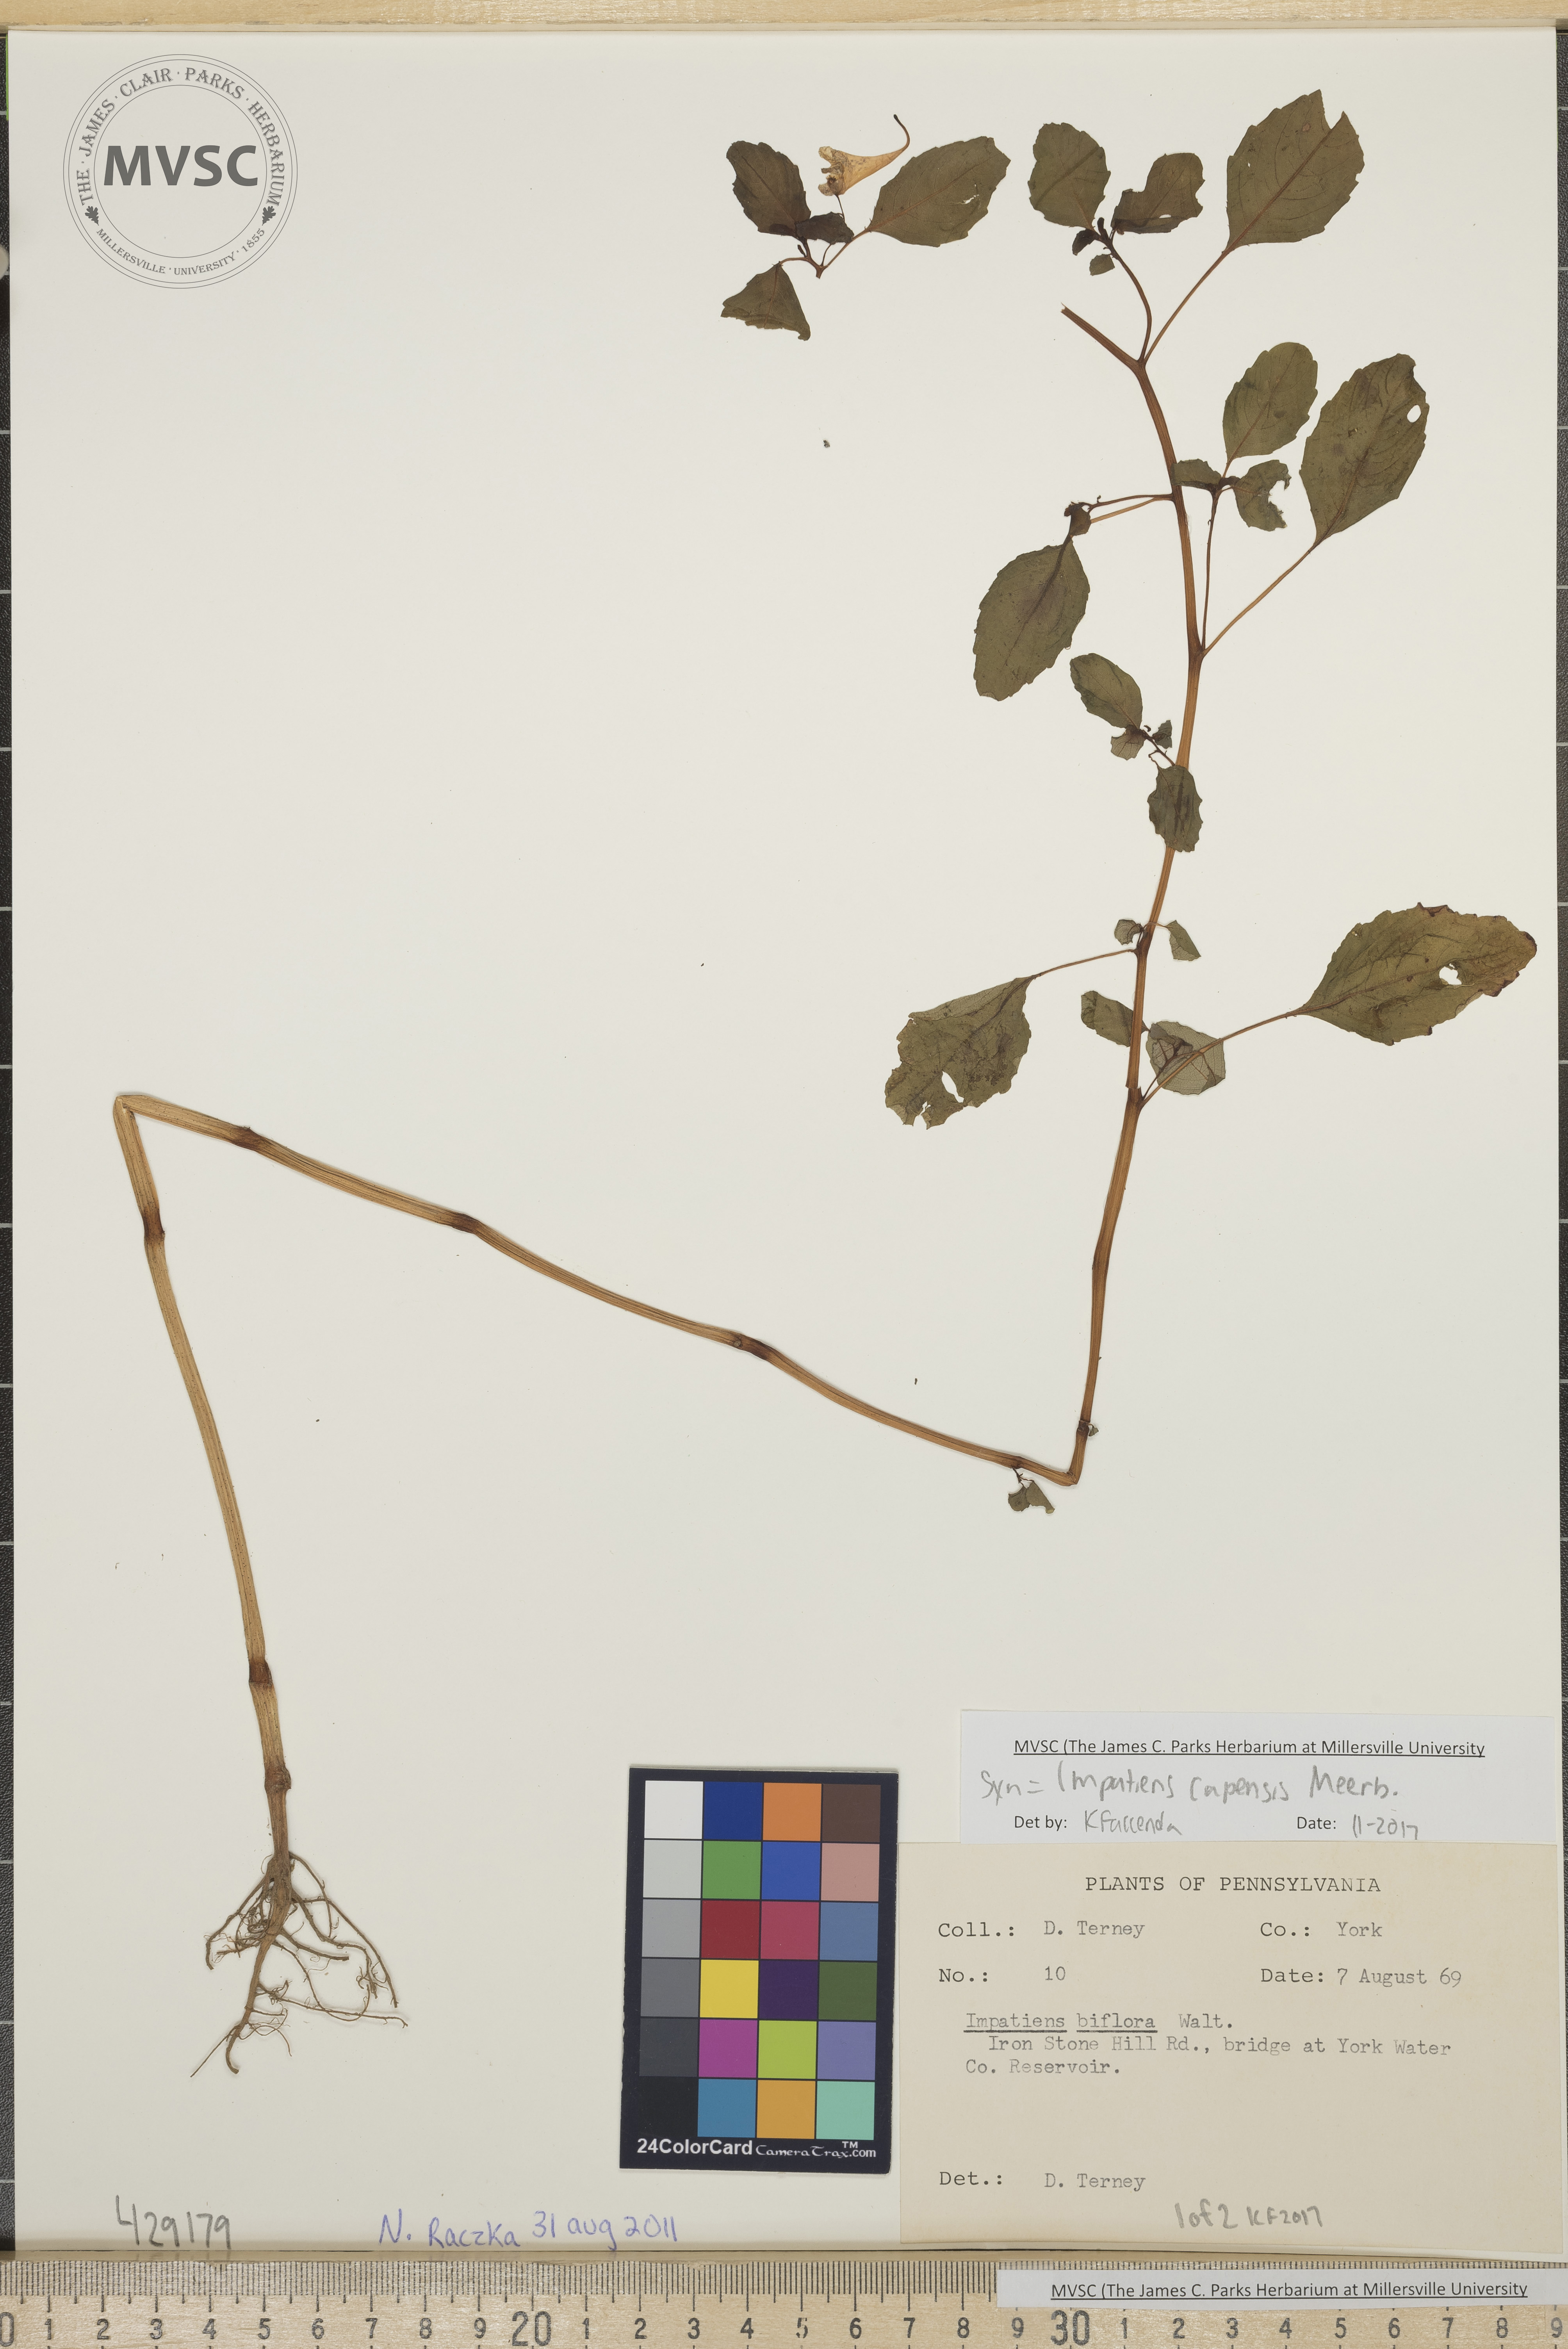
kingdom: Plantae
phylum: Tracheophyta
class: Magnoliopsida
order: Ericales
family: Balsaminaceae
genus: Impatiens
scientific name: Impatiens capensis
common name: Jewelweed
